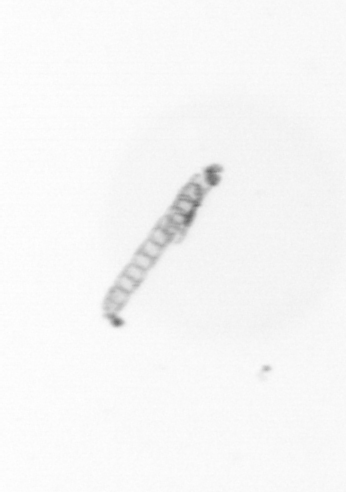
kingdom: Chromista
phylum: Ochrophyta
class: Bacillariophyceae
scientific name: Bacillariophyceae
